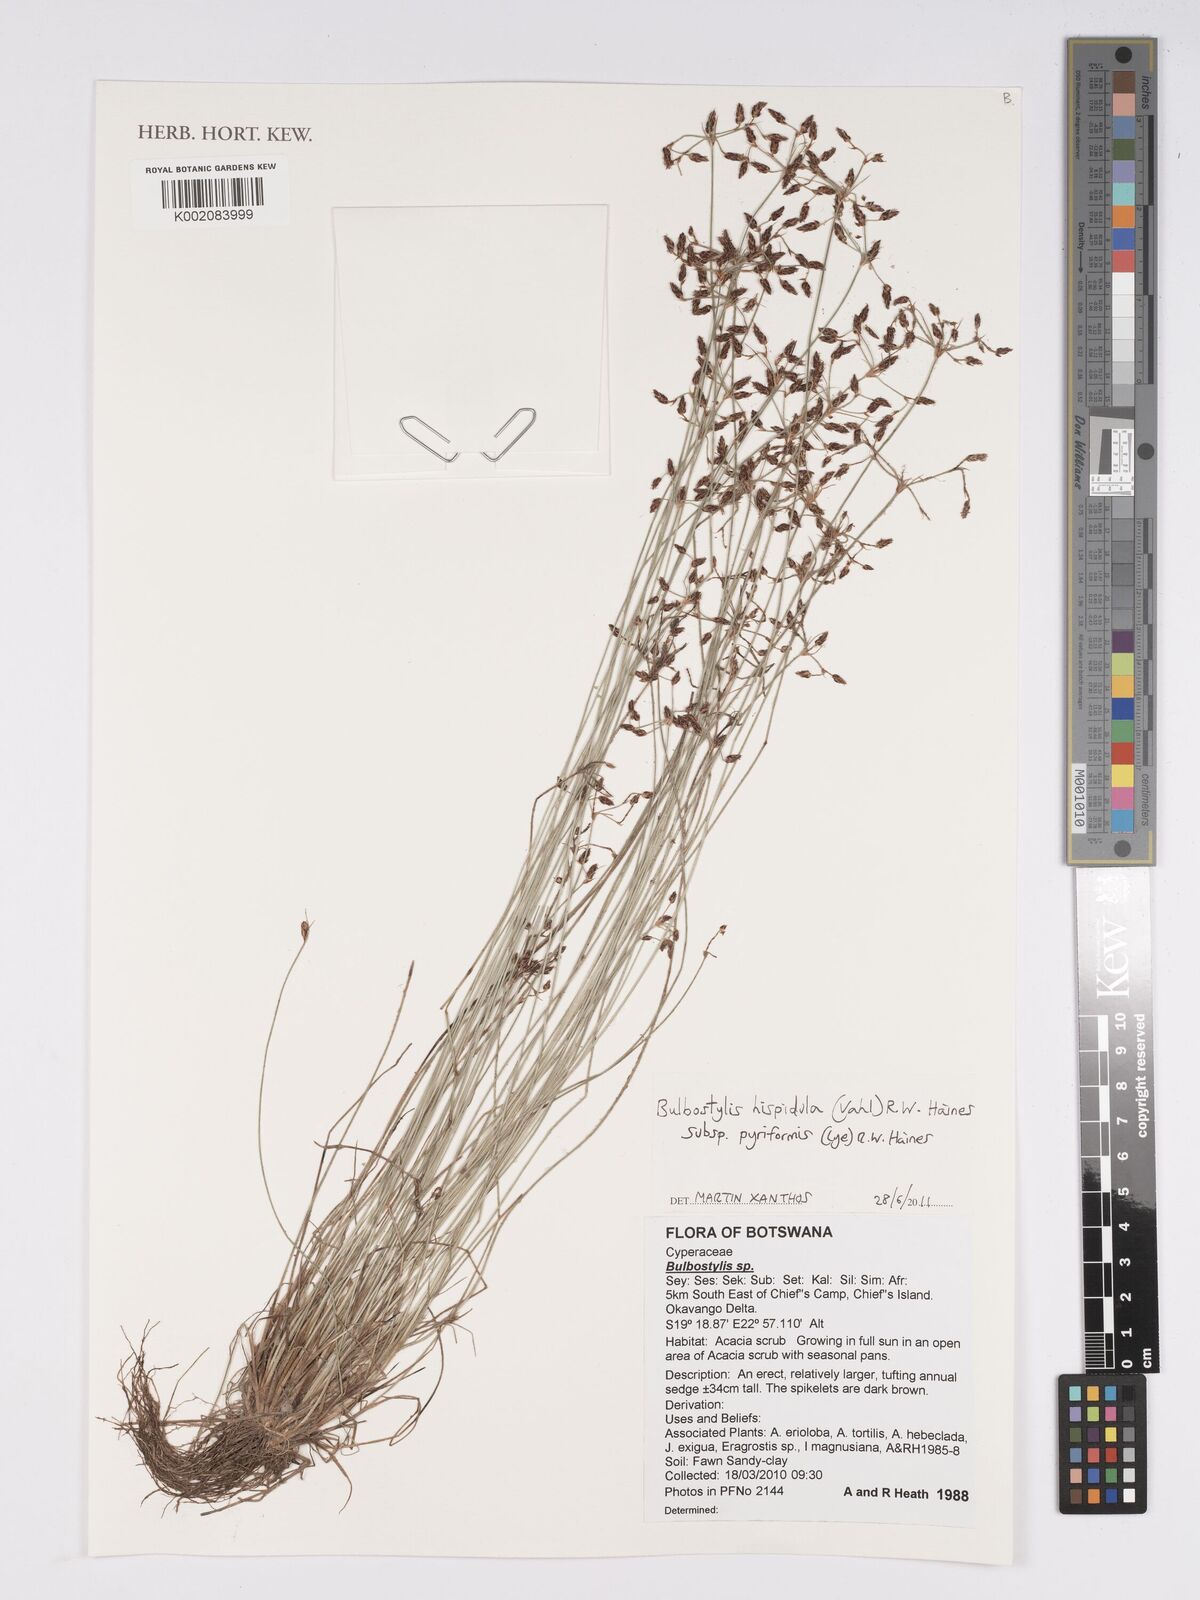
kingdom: Plantae
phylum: Tracheophyta
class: Liliopsida
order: Poales
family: Cyperaceae
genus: Bulbostylis
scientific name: Bulbostylis hispidula
